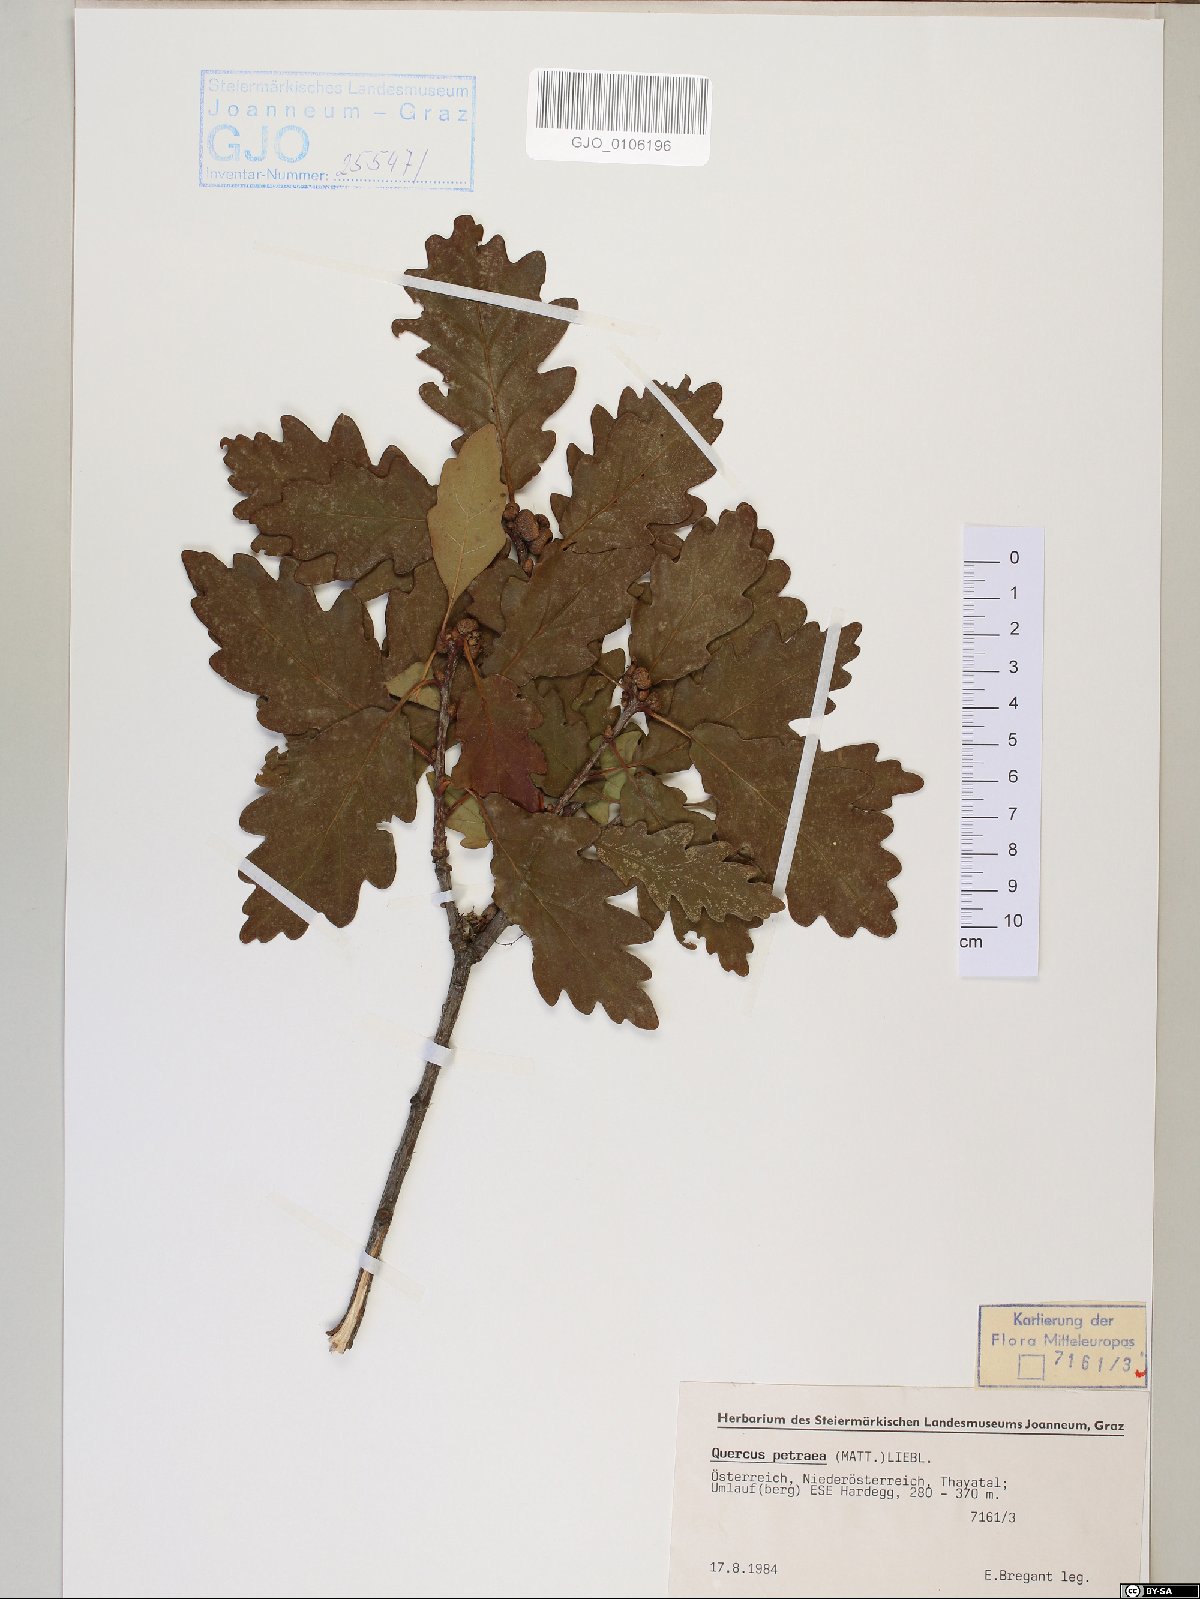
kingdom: Plantae
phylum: Tracheophyta
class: Magnoliopsida
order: Fagales
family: Fagaceae
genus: Quercus
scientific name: Quercus petraea
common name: Sessile oak
